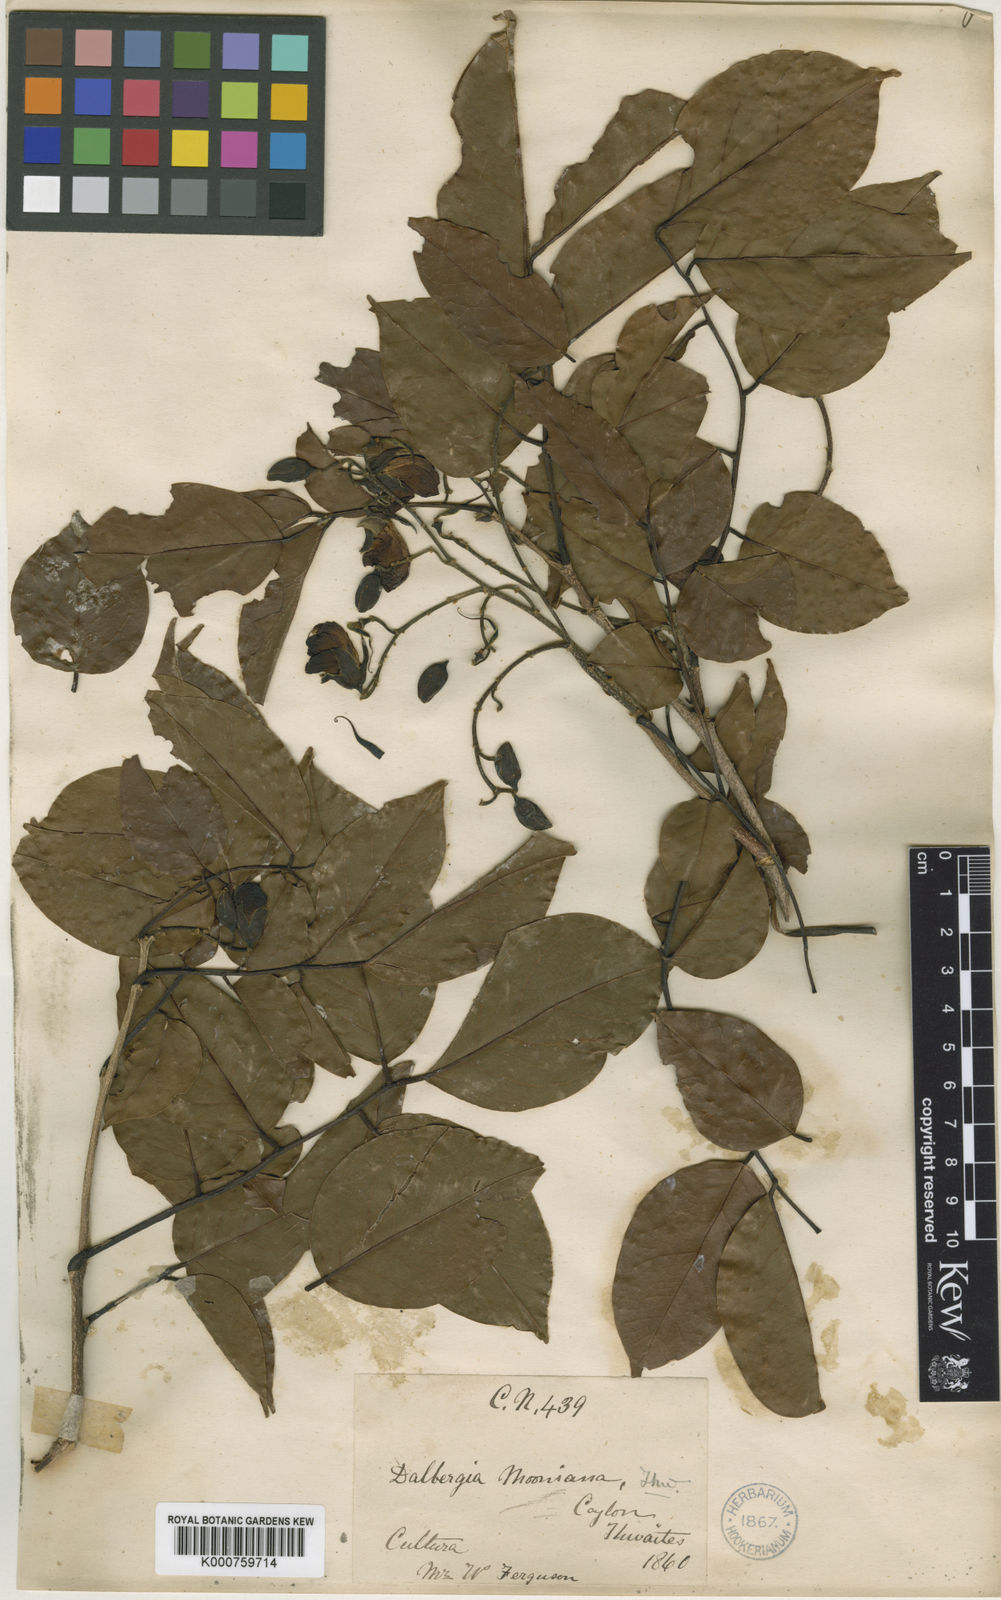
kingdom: Plantae
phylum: Tracheophyta
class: Magnoliopsida
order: Fabales
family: Fabaceae
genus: Pericopsis
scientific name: Pericopsis mooniana
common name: Nandu wood
